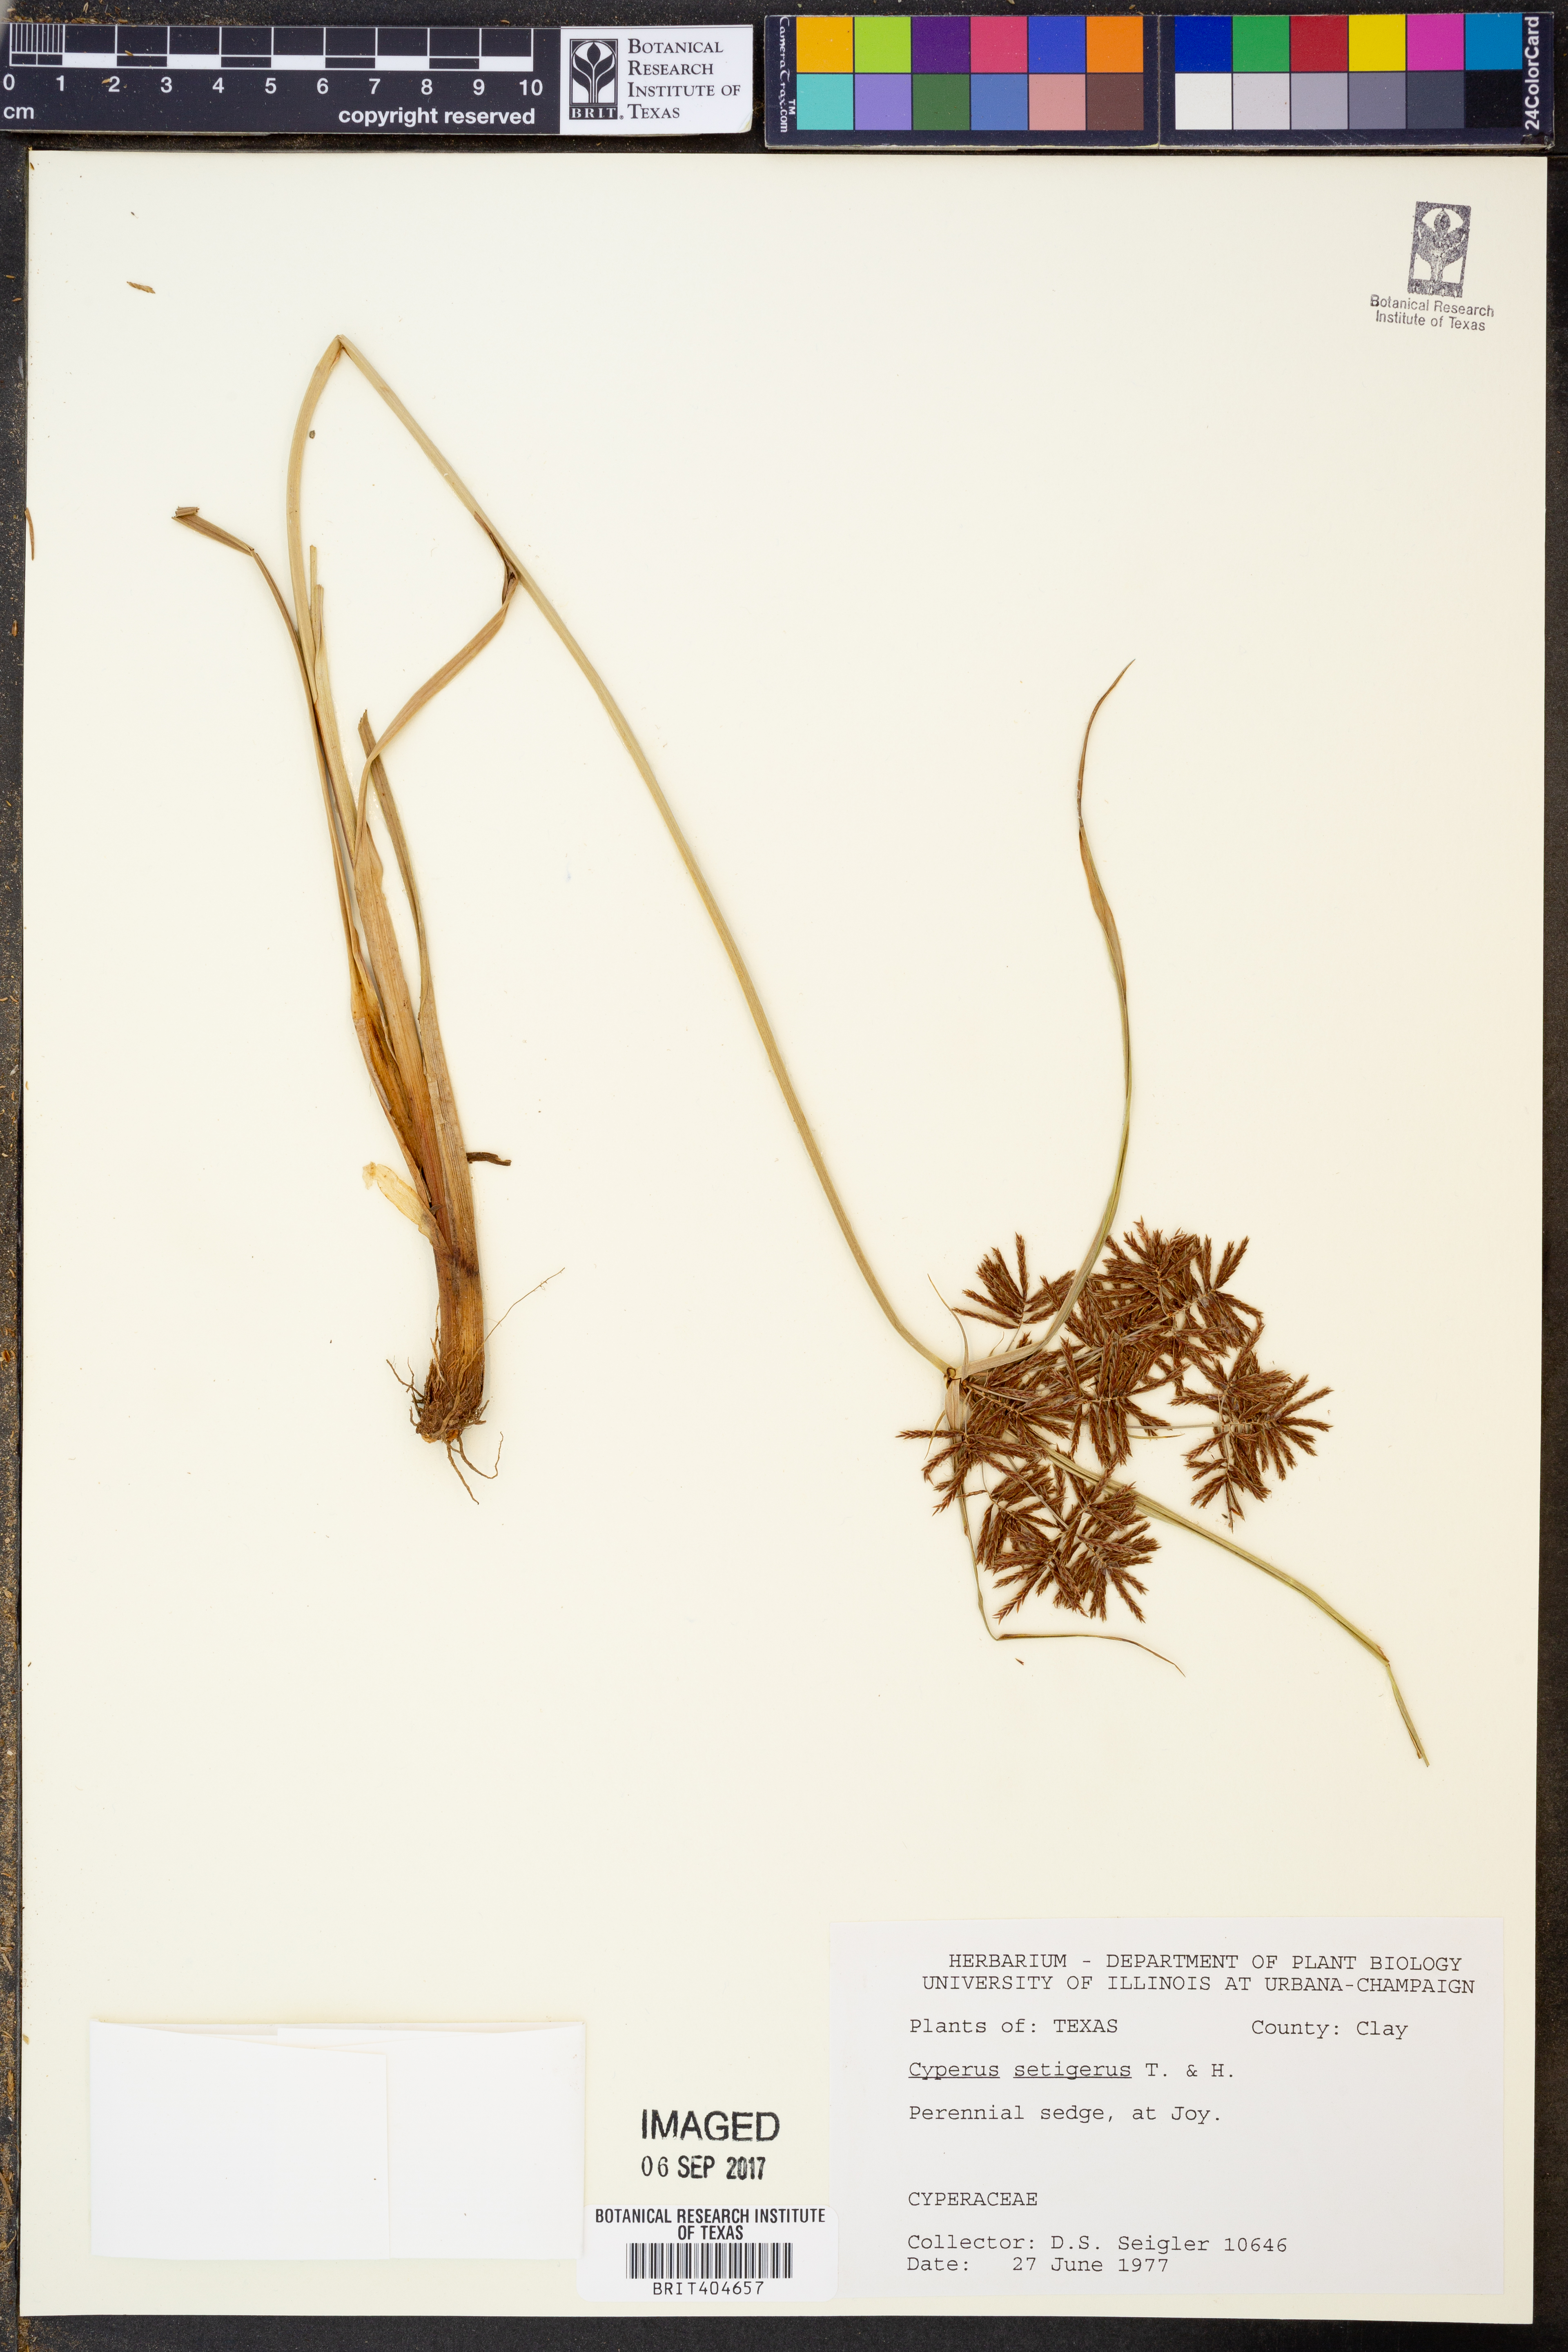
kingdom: Plantae
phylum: Tracheophyta
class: Liliopsida
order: Poales
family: Cyperaceae
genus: Cyperus
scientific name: Cyperus setigerus
